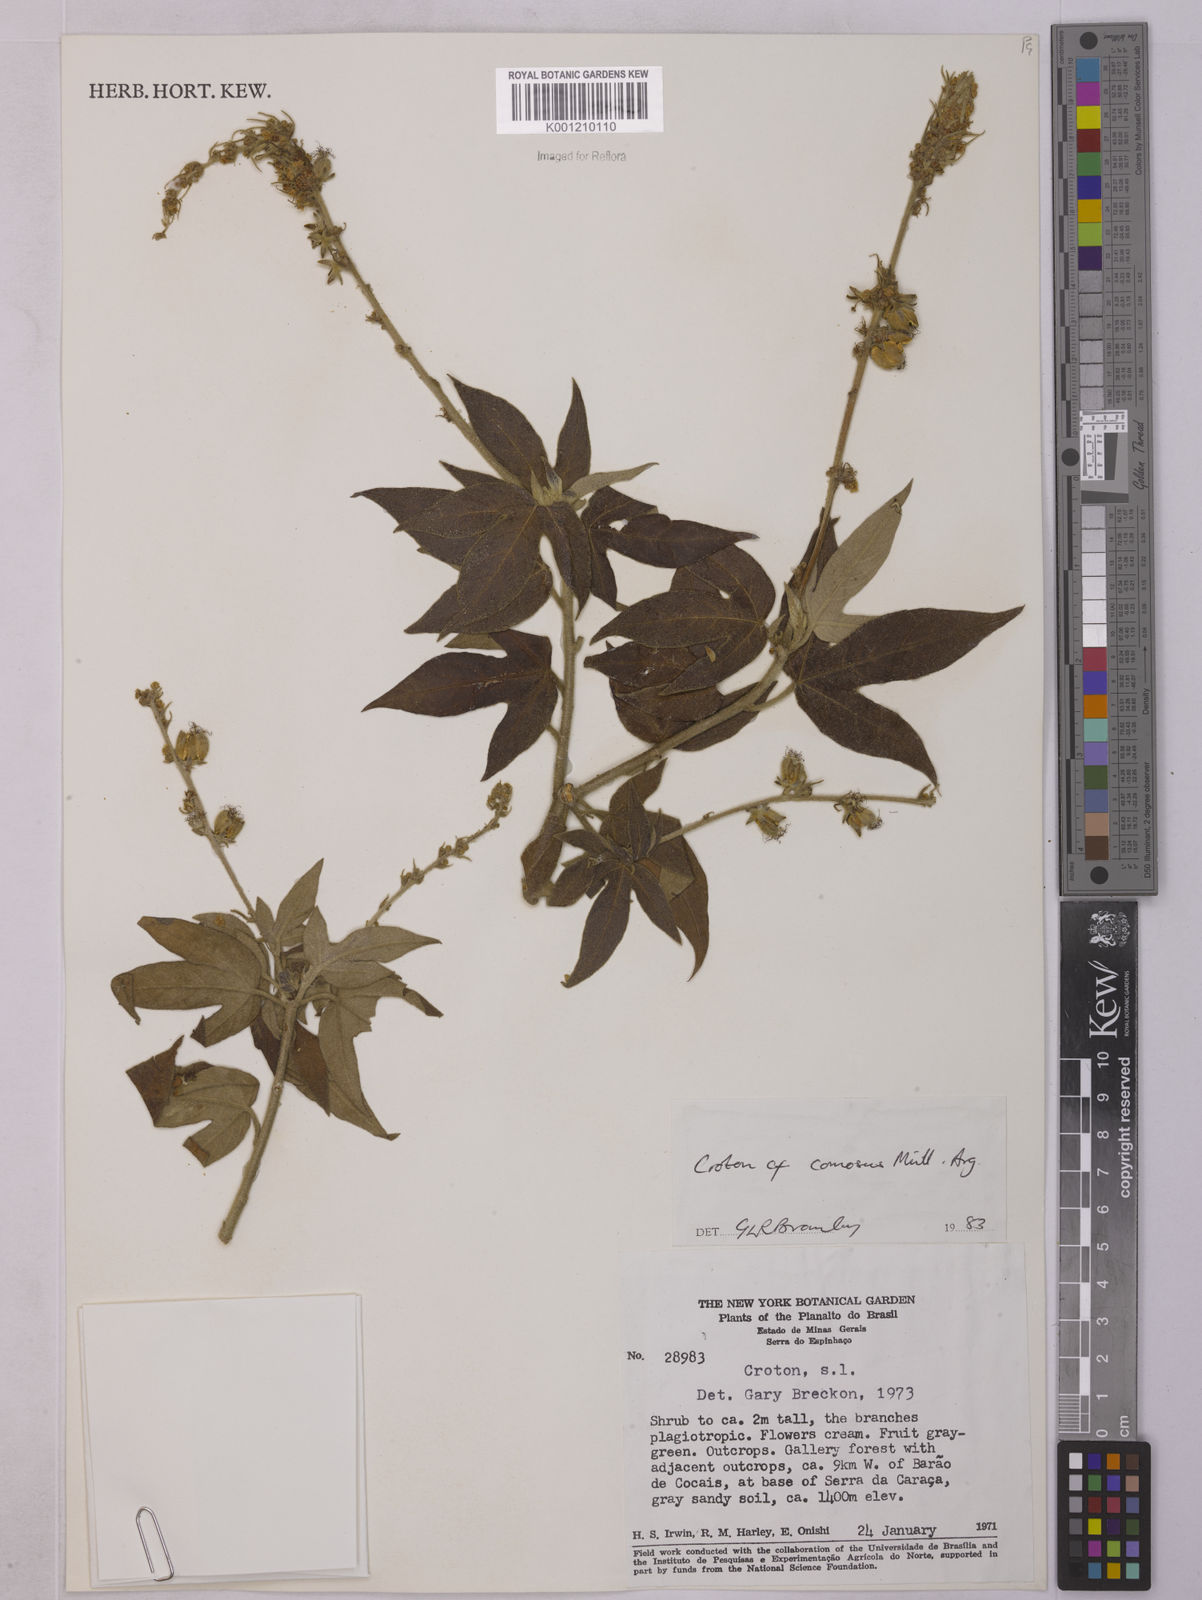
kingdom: Plantae
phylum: Tracheophyta
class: Magnoliopsida
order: Malpighiales
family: Euphorbiaceae
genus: Astraea
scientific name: Astraea
